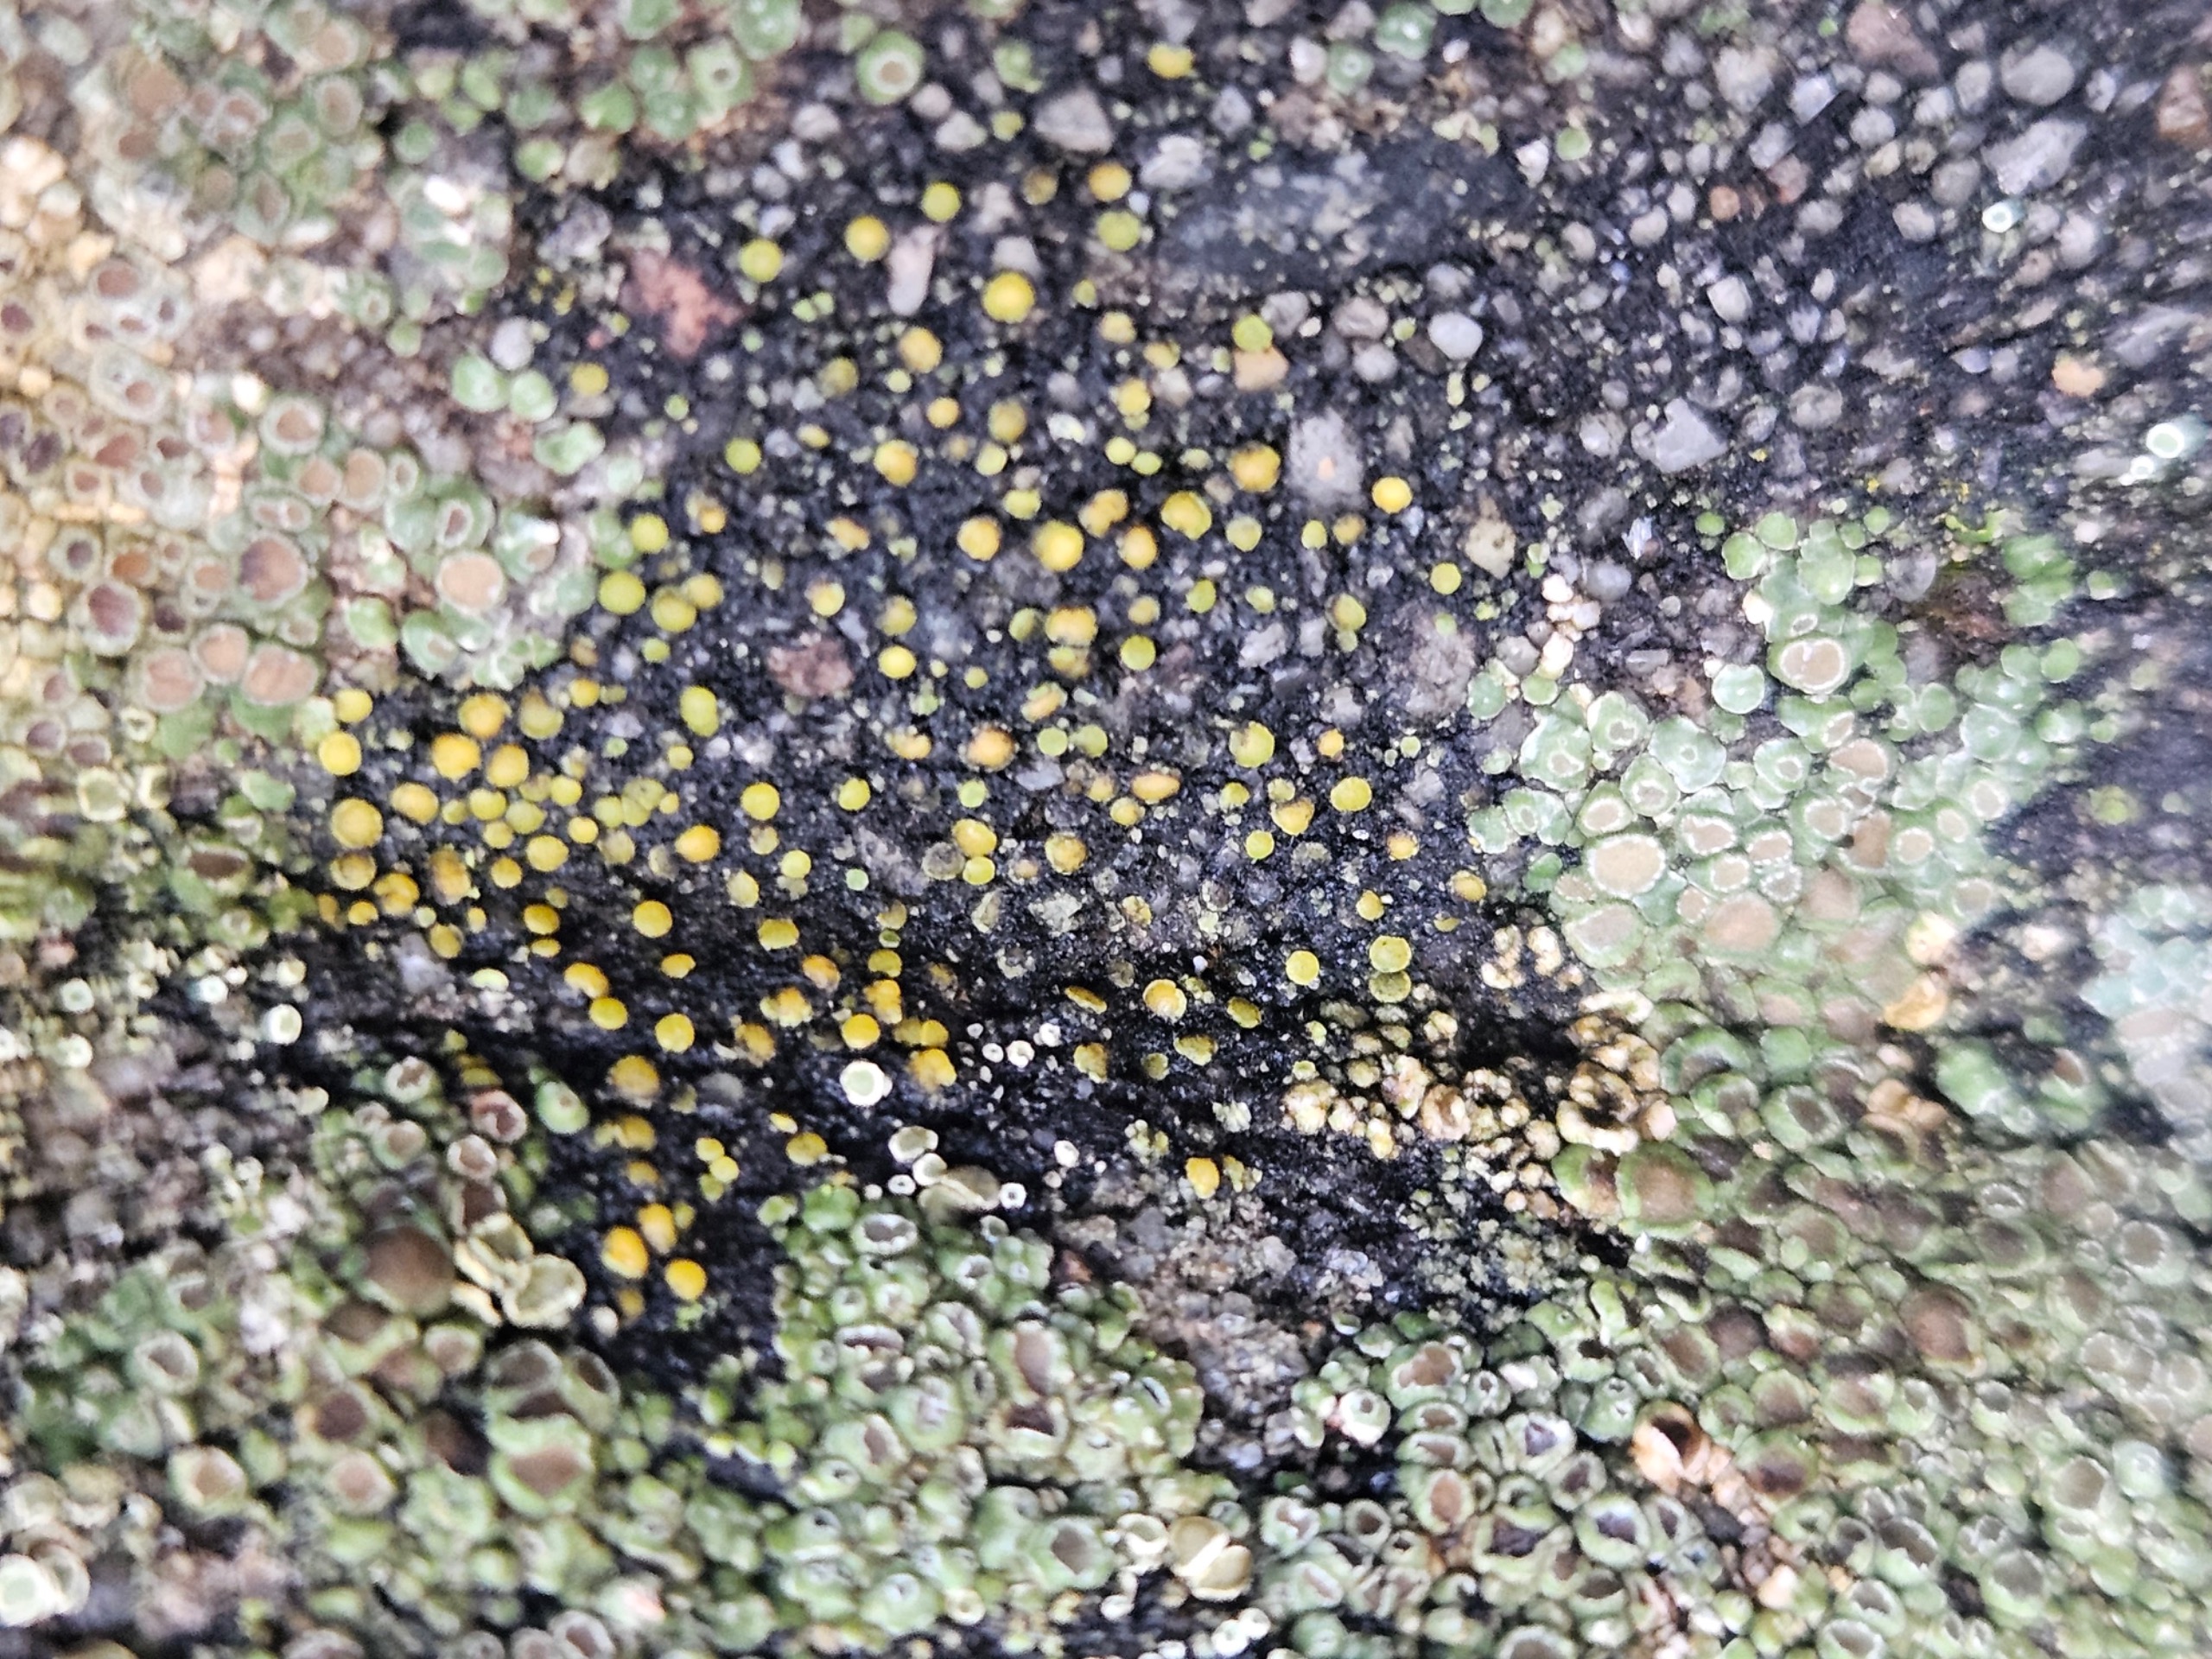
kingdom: Fungi
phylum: Ascomycota
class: Candelariomycetes
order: Candelariales
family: Candelariaceae
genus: Candelariella
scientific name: Candelariella aurella
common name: Liden æggeblommelav
